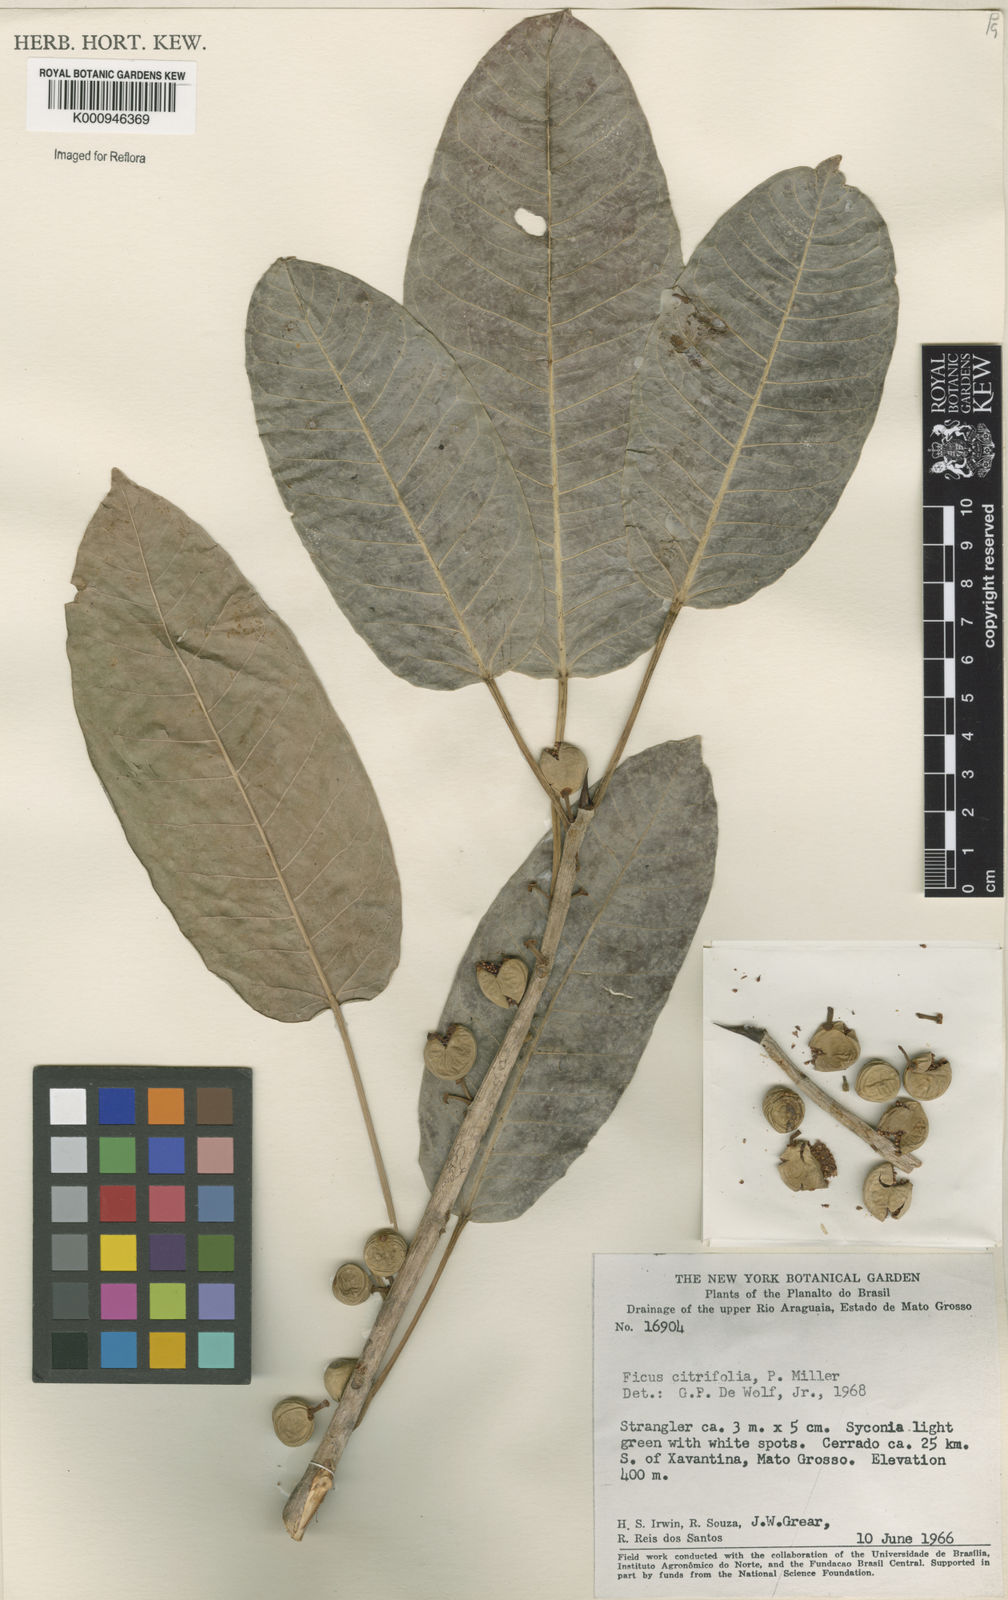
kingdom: Plantae
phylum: Tracheophyta
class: Magnoliopsida
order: Rosales
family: Moraceae
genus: Ficus
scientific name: Ficus citrifolia
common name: Strangler fig
